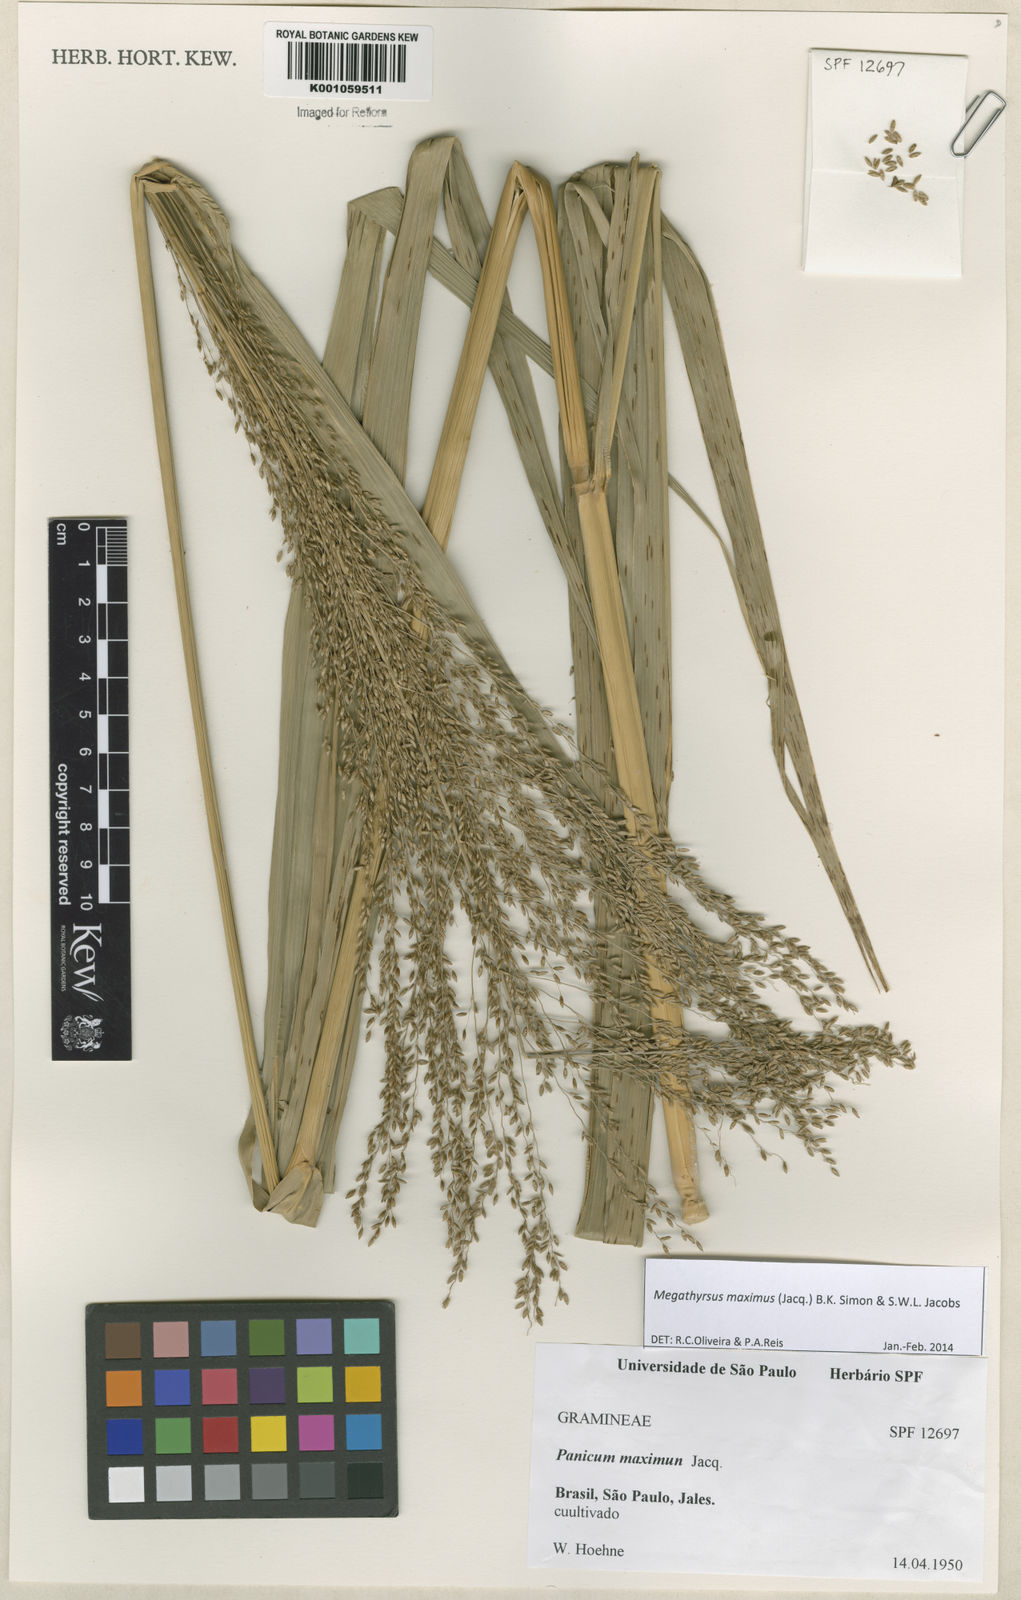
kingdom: Plantae
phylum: Tracheophyta
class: Liliopsida
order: Poales
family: Poaceae
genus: Megathyrsus
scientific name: Megathyrsus maximus
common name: Guineagrass
